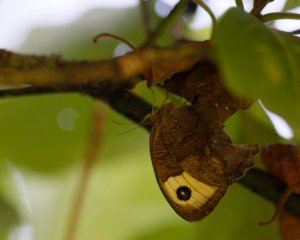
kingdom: Animalia
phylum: Arthropoda
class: Insecta
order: Lepidoptera
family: Nymphalidae
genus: Cercyonis
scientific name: Cercyonis pegala
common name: Common Wood-Nymph
